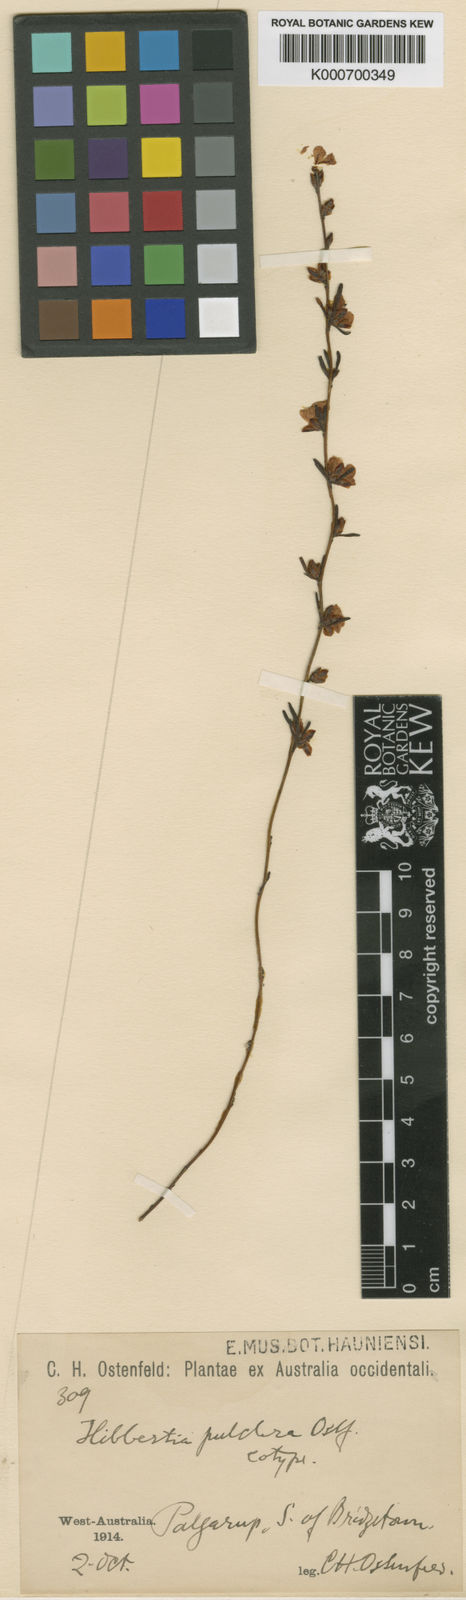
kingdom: Plantae
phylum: Tracheophyta
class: Magnoliopsida
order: Dilleniales
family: Dilleniaceae
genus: Hibbertia
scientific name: Hibbertia pulchra
